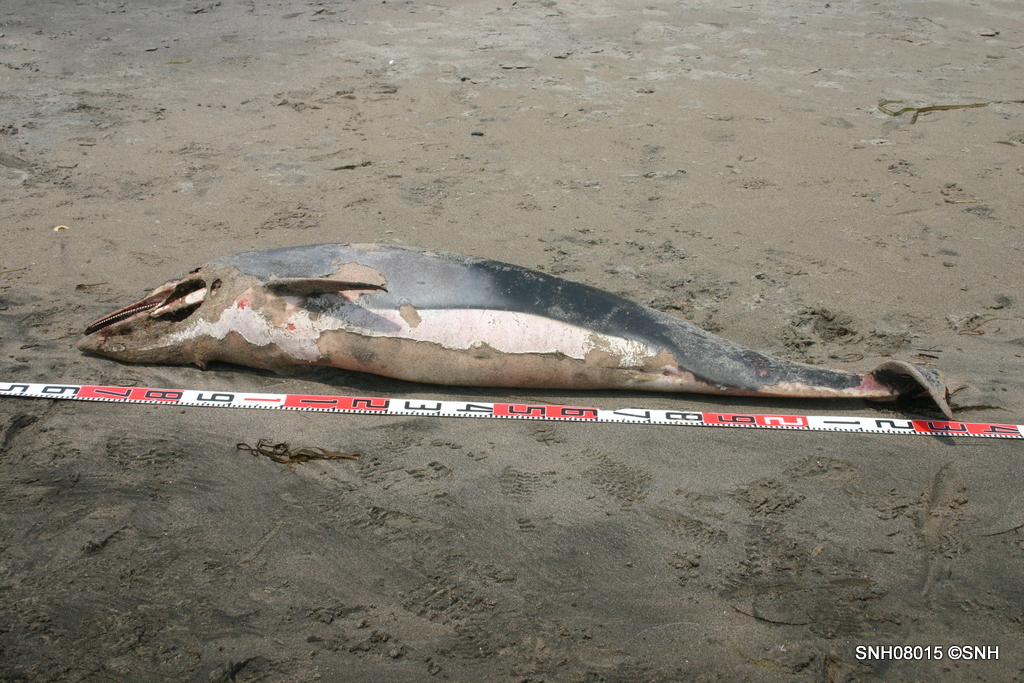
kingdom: Animalia
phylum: Chordata
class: Mammalia
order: Cetacea
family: Delphinidae
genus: Lagenorhynchus
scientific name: Lagenorhynchus obliquidens
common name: Pacific white-sided dolphin
